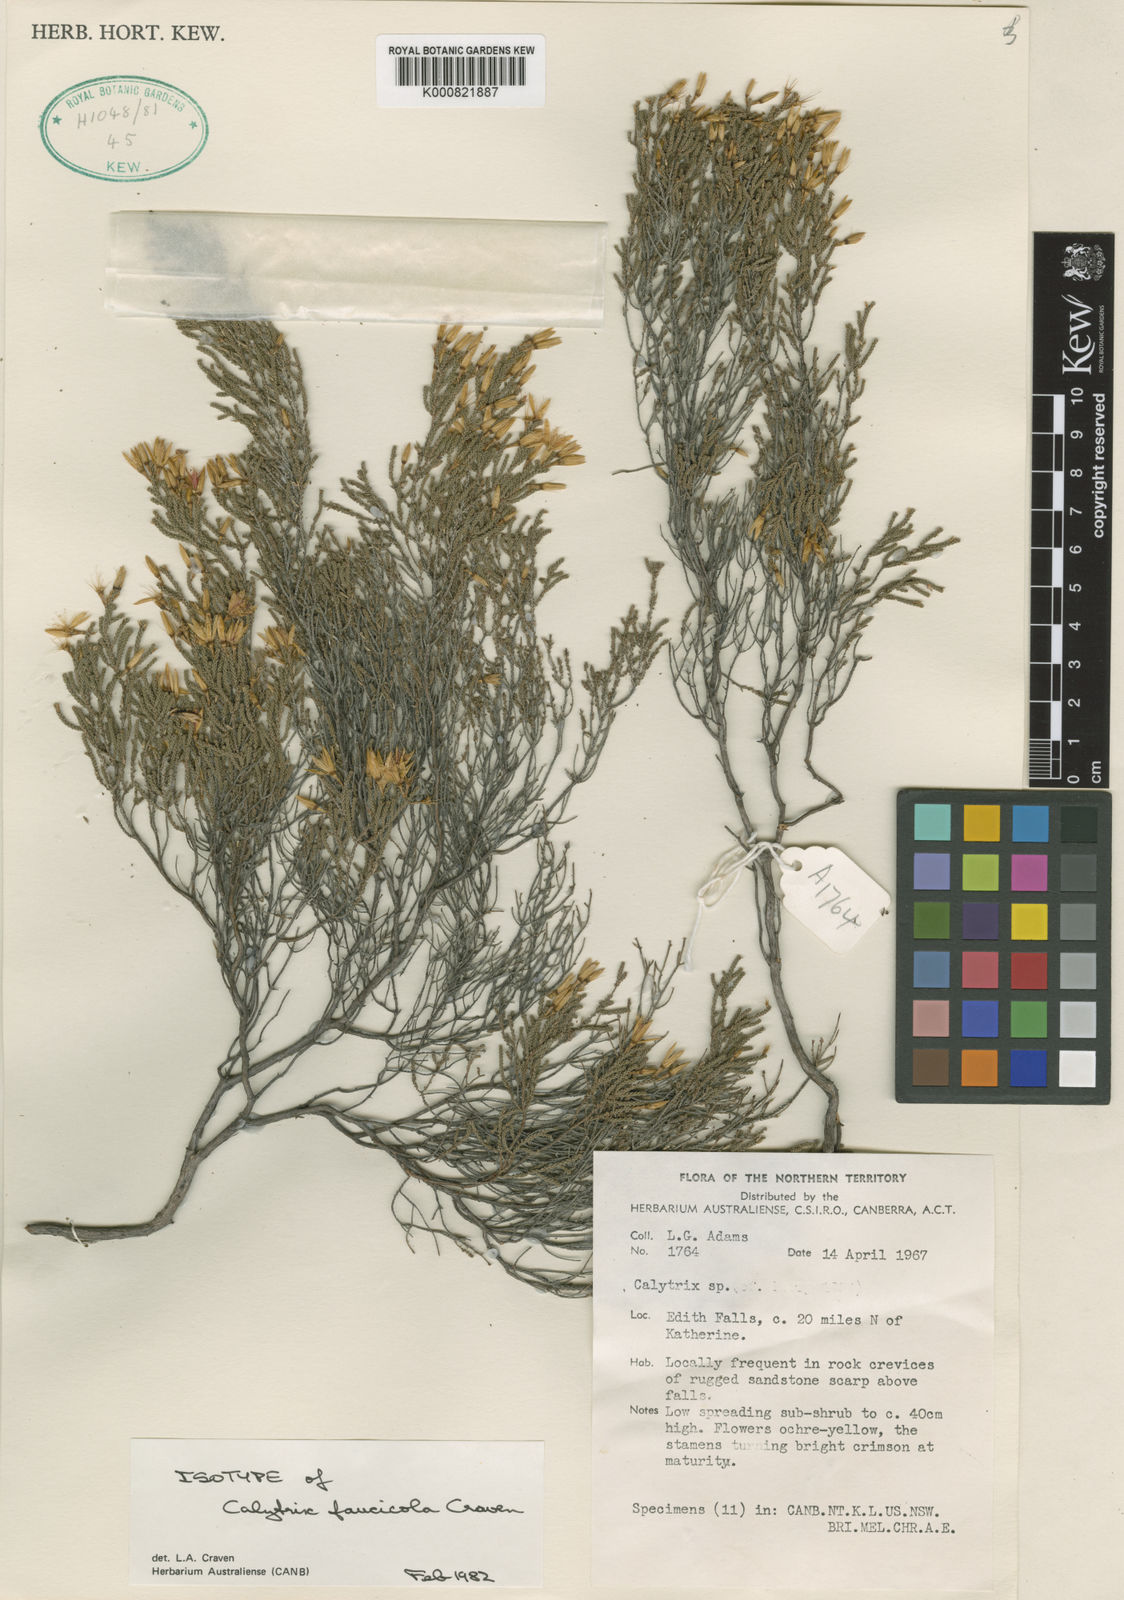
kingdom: Plantae
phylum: Tracheophyta
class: Magnoliopsida
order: Myrtales
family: Myrtaceae
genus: Calytrix
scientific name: Calytrix faucicola
